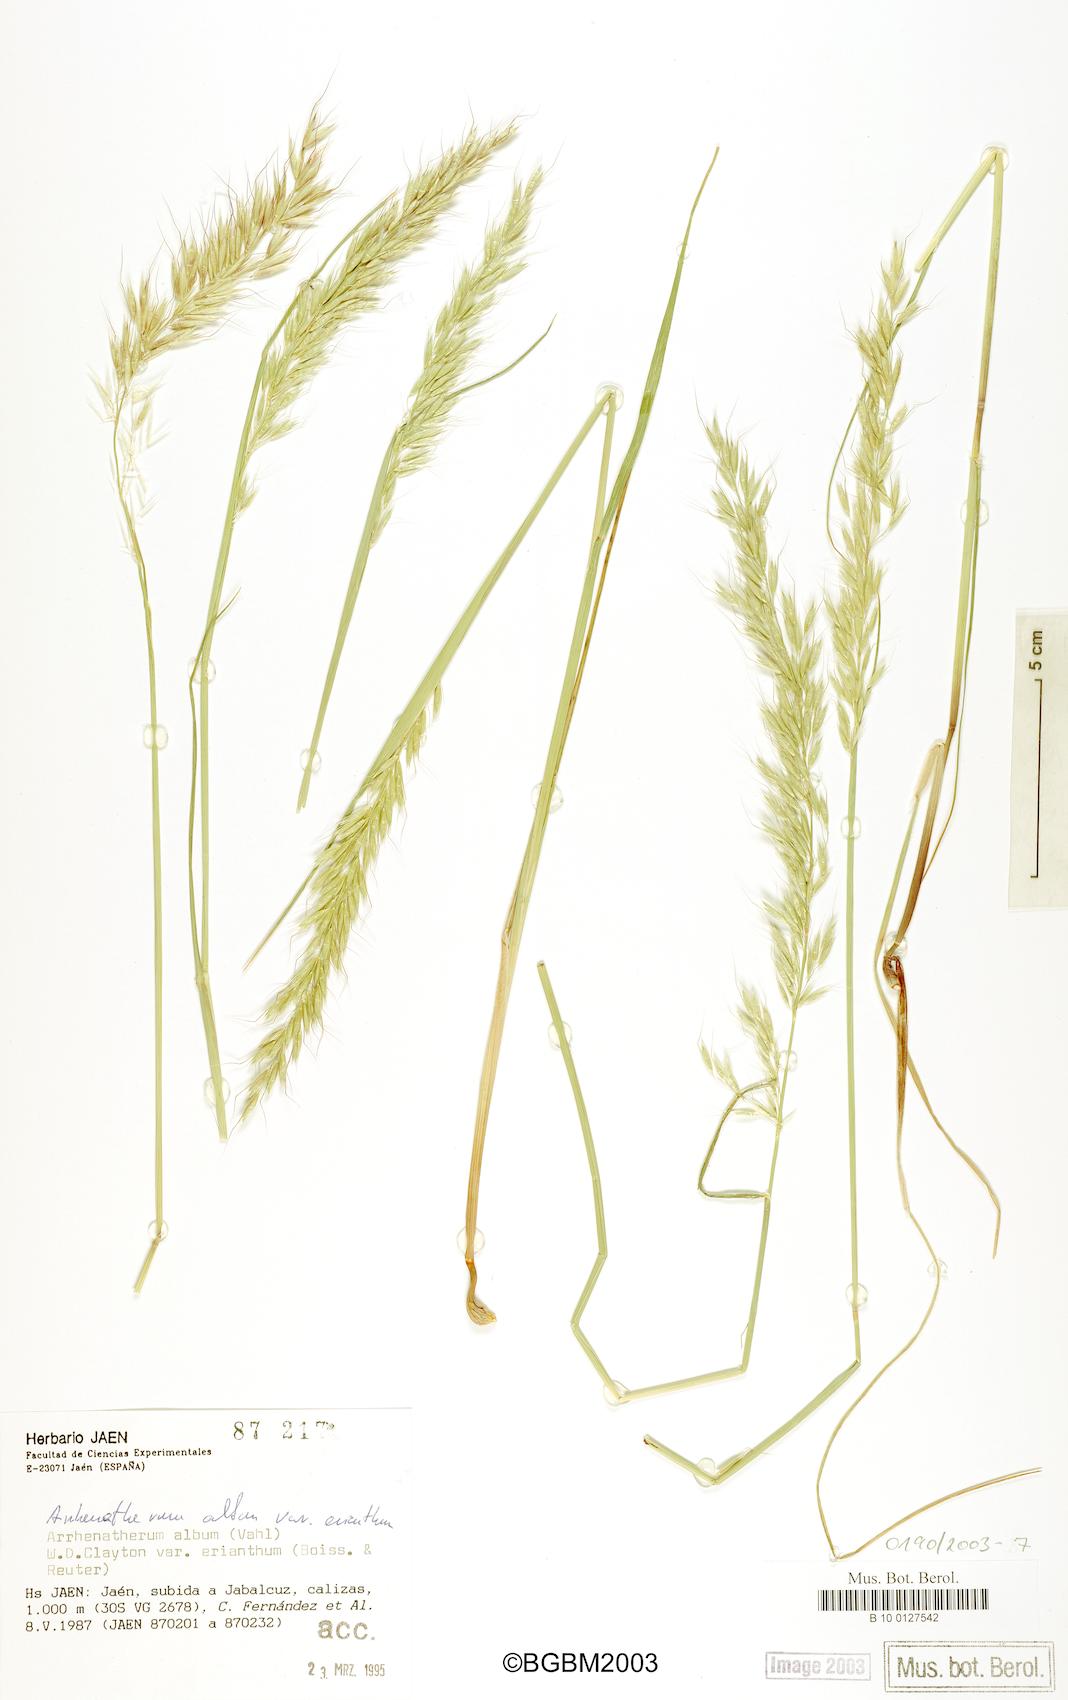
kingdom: Plantae
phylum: Tracheophyta
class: Liliopsida
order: Poales
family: Poaceae
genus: Arrhenatherum
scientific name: Arrhenatherum album
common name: Tall oat grass
